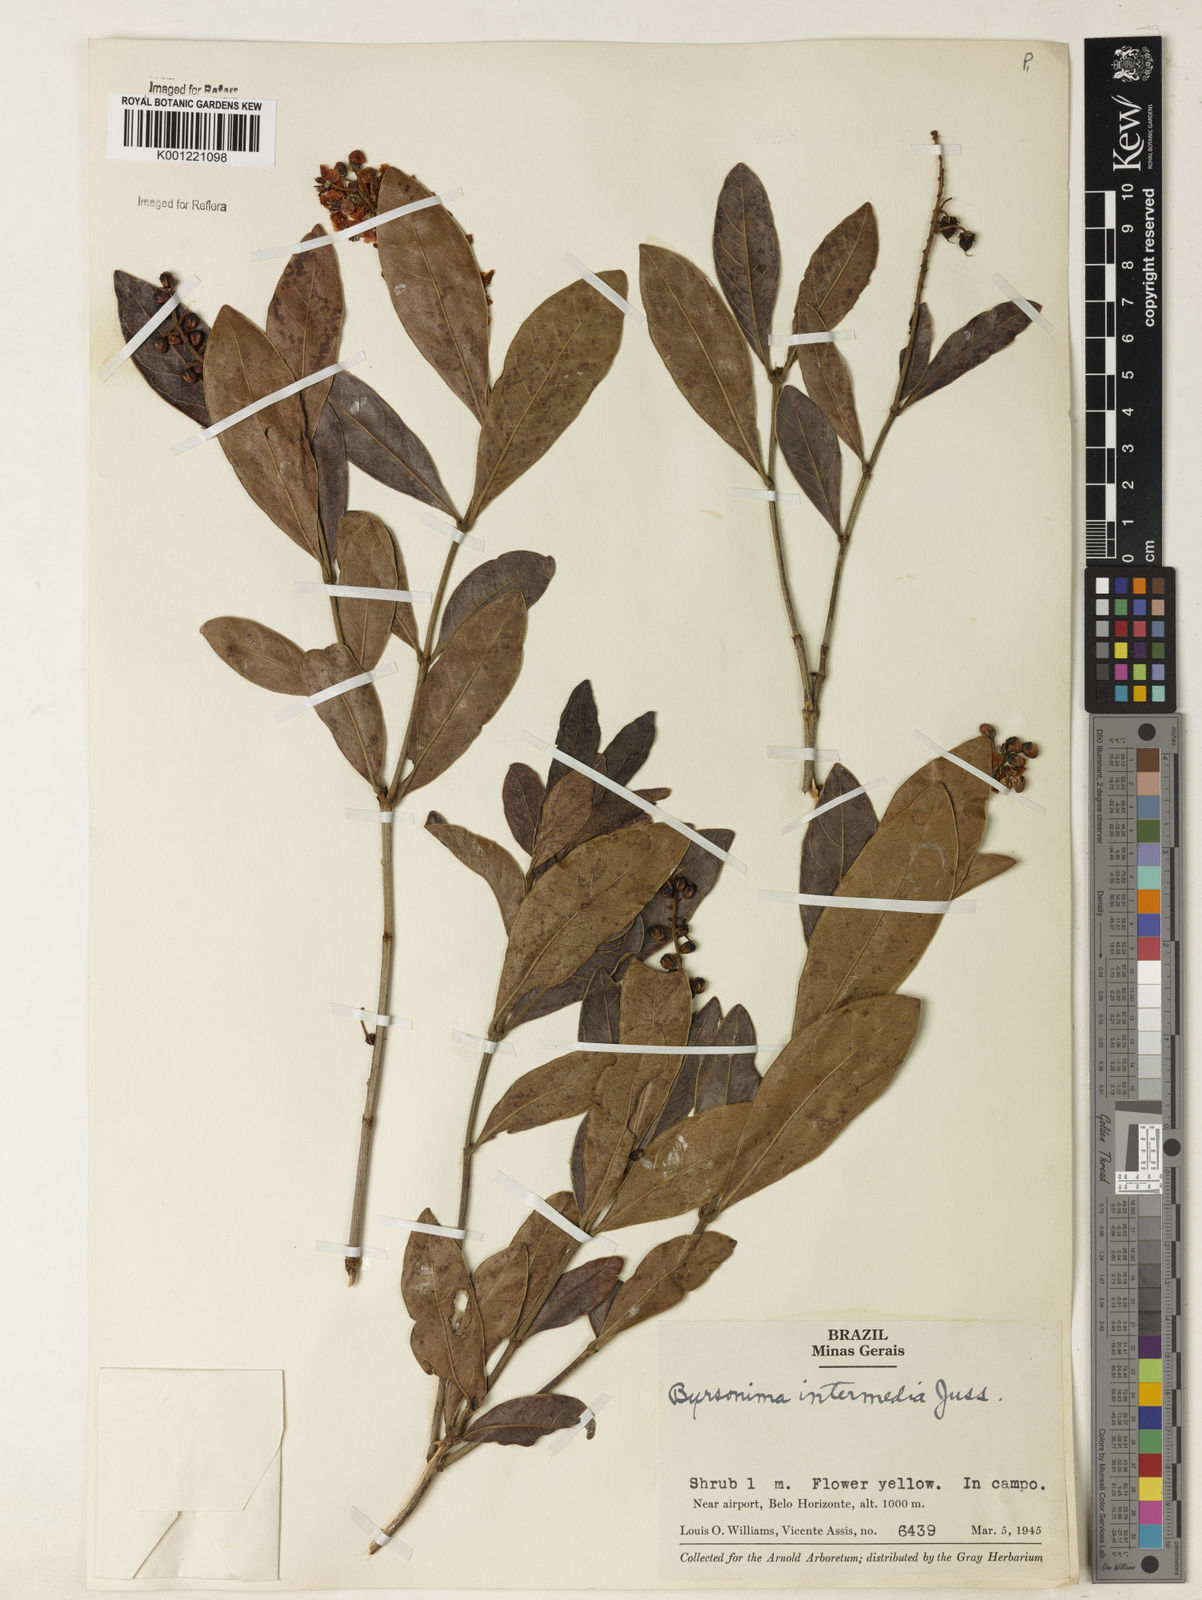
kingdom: Plantae
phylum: Tracheophyta
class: Magnoliopsida
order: Malpighiales
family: Malpighiaceae
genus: Byrsonima
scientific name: Byrsonima intermedia
